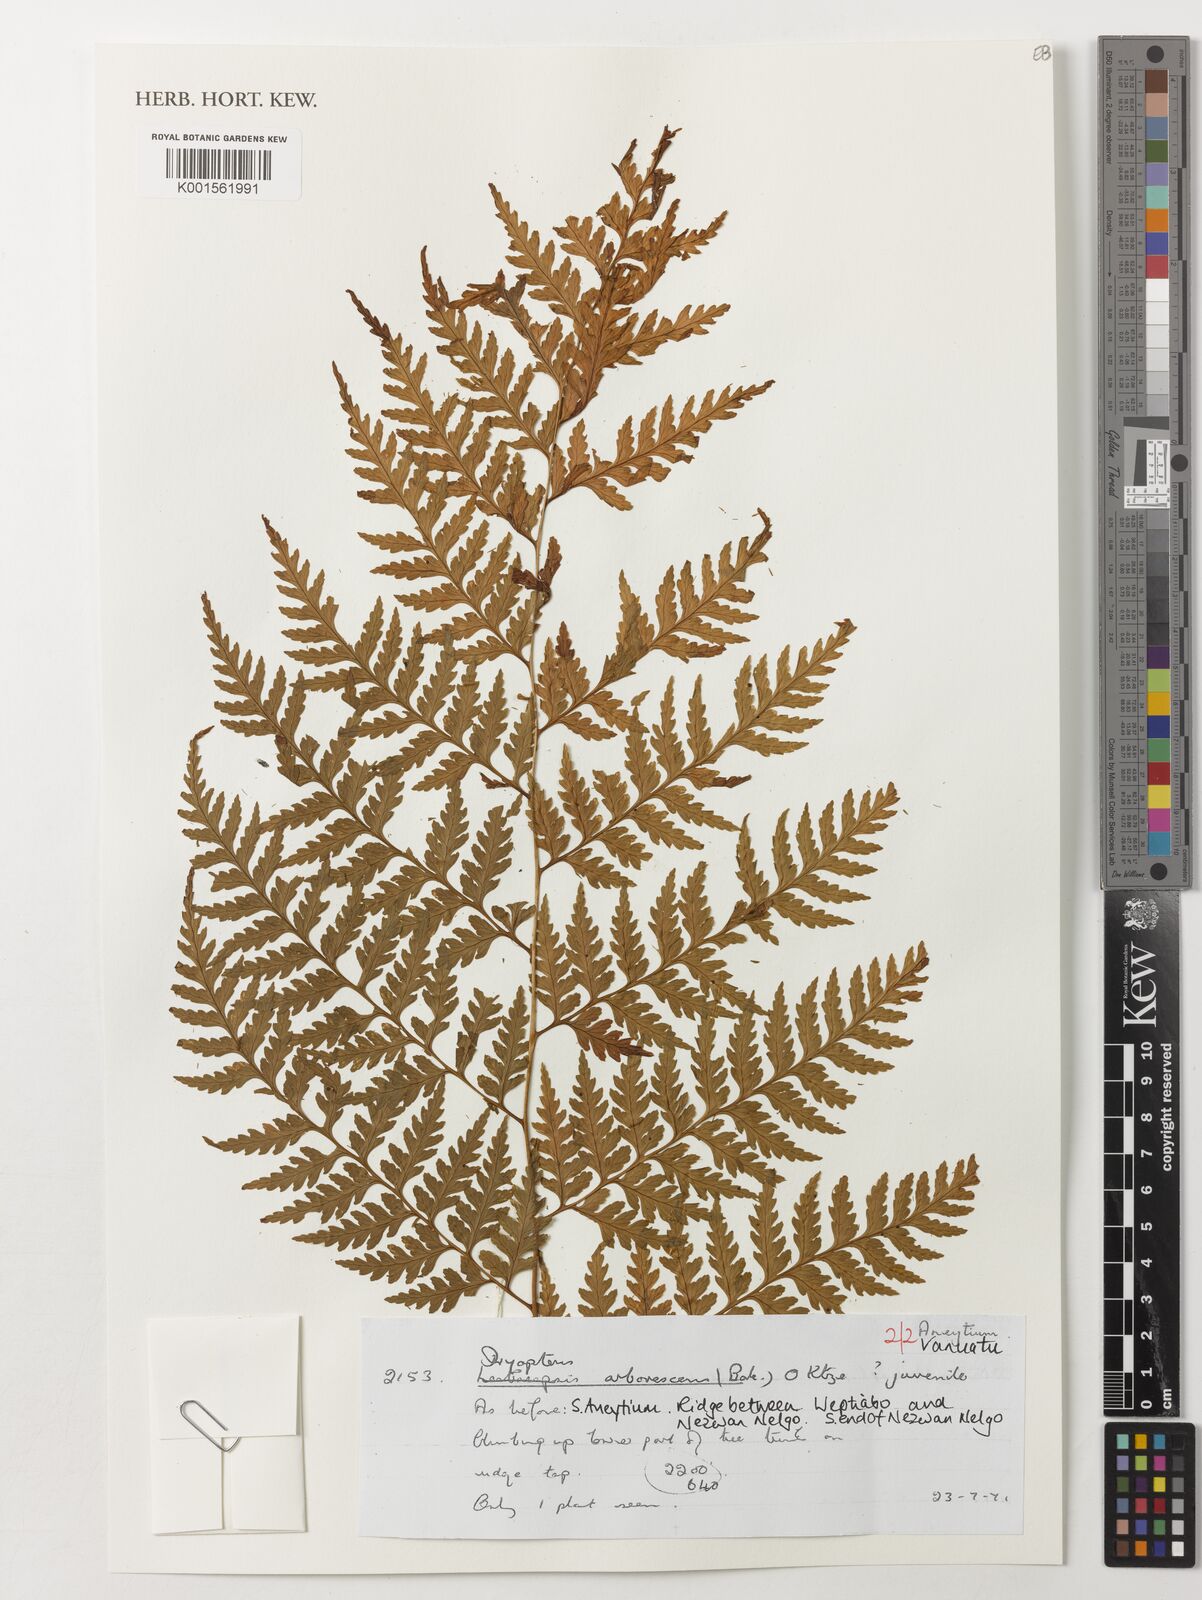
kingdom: Plantae
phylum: Tracheophyta
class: Polypodiopsida
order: Polypodiales
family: Dryopteridaceae
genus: Dryopteris
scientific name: Dryopteris arborescens
